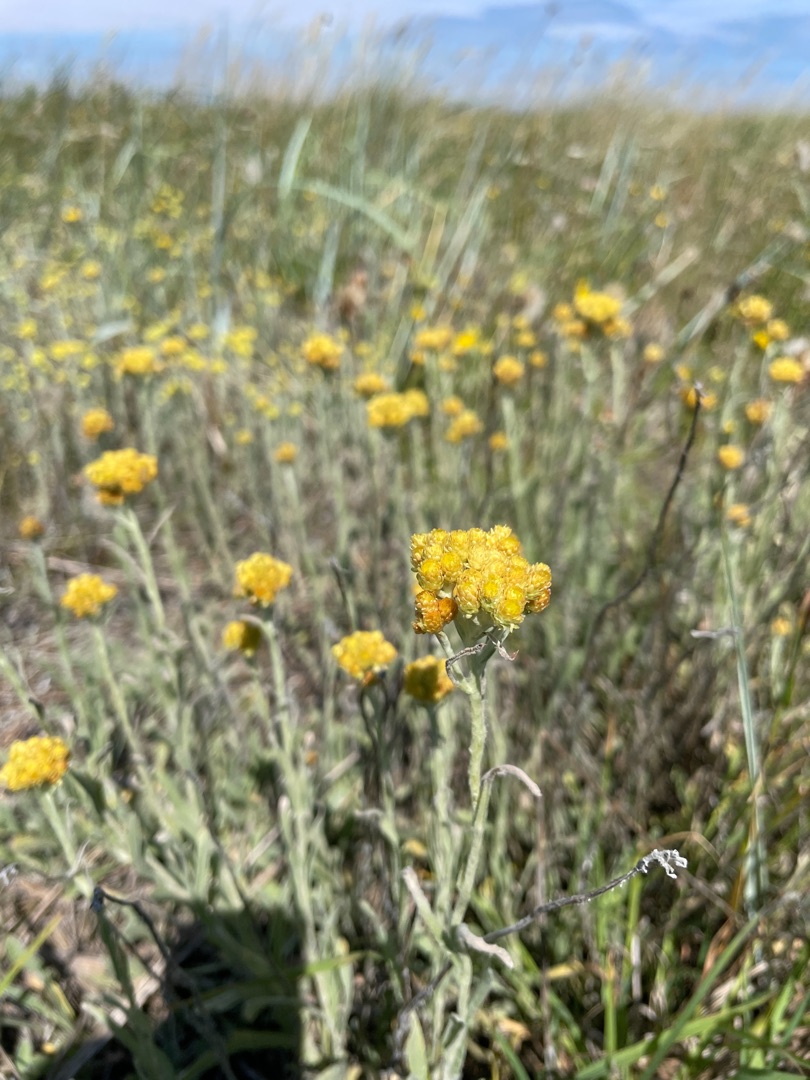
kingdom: Plantae
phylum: Tracheophyta
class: Magnoliopsida
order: Asterales
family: Asteraceae
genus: Helichrysum
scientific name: Helichrysum arenarium
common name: Gul evighedsblomst
